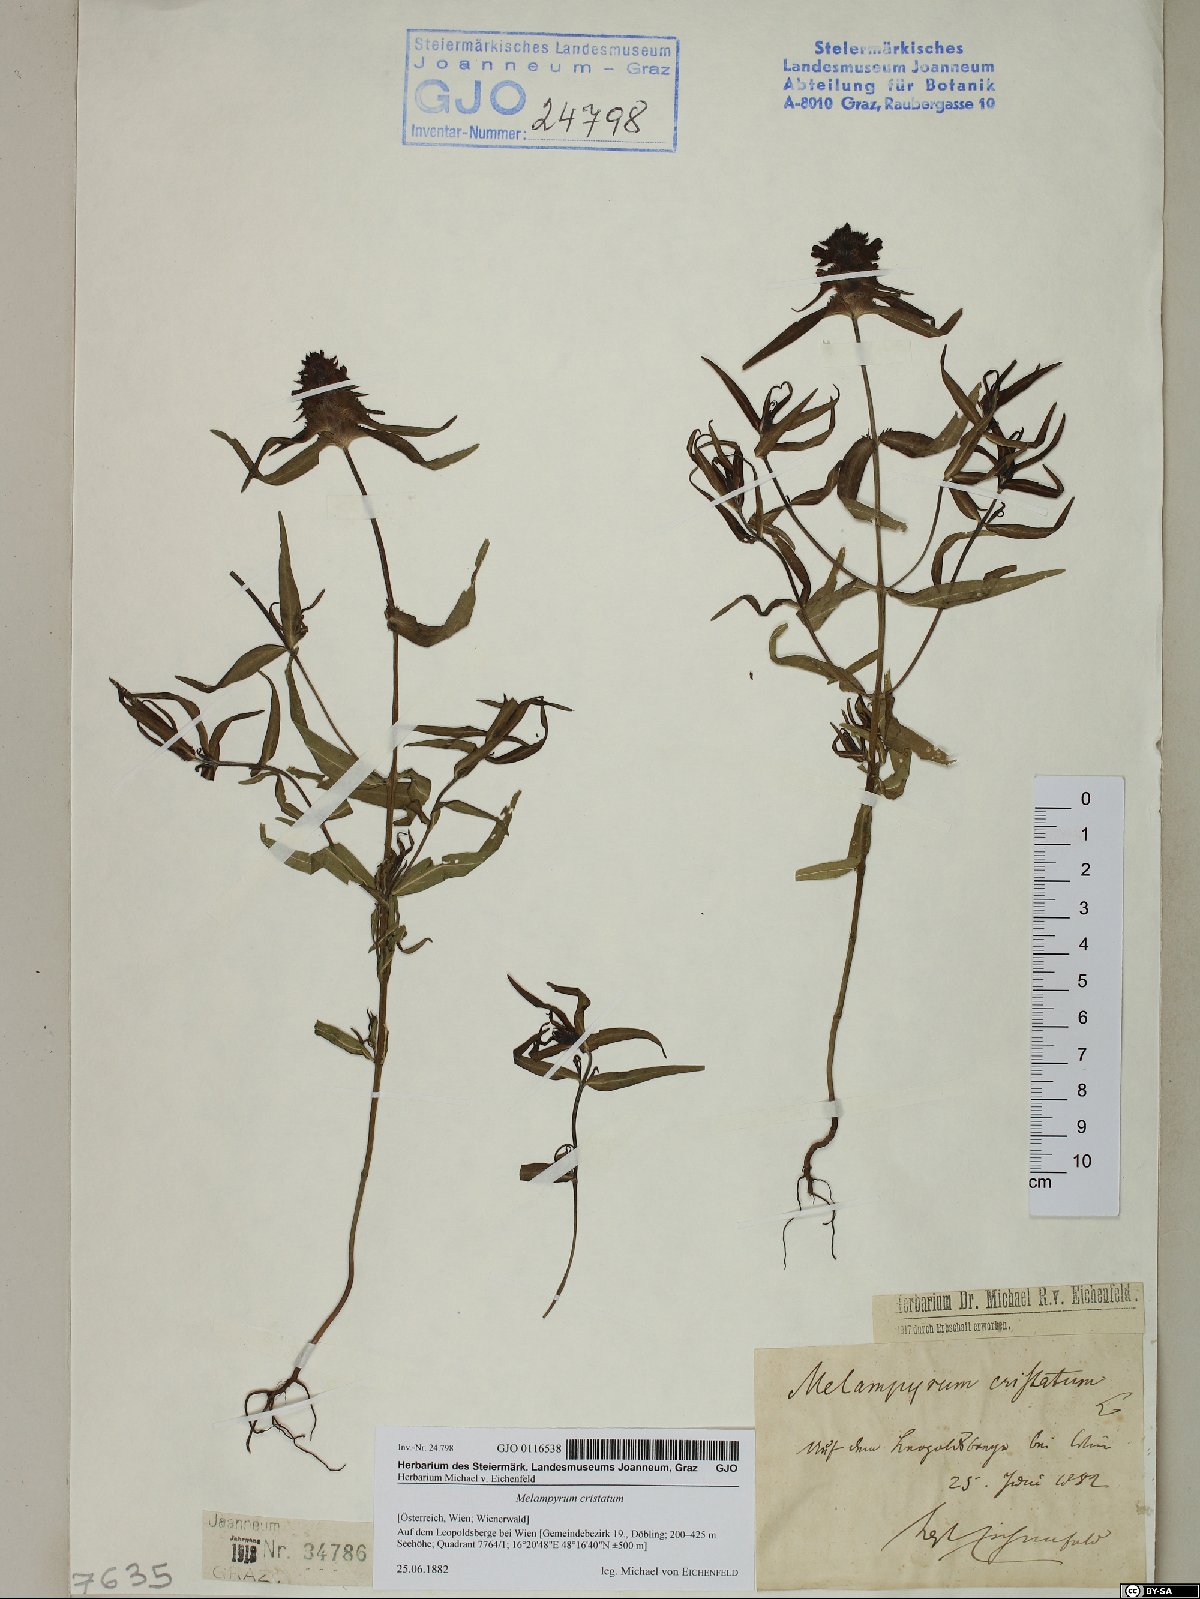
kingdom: Plantae
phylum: Tracheophyta
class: Magnoliopsida
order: Lamiales
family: Orobanchaceae
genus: Melampyrum
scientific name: Melampyrum cristatum
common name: Crested cow-wheat
